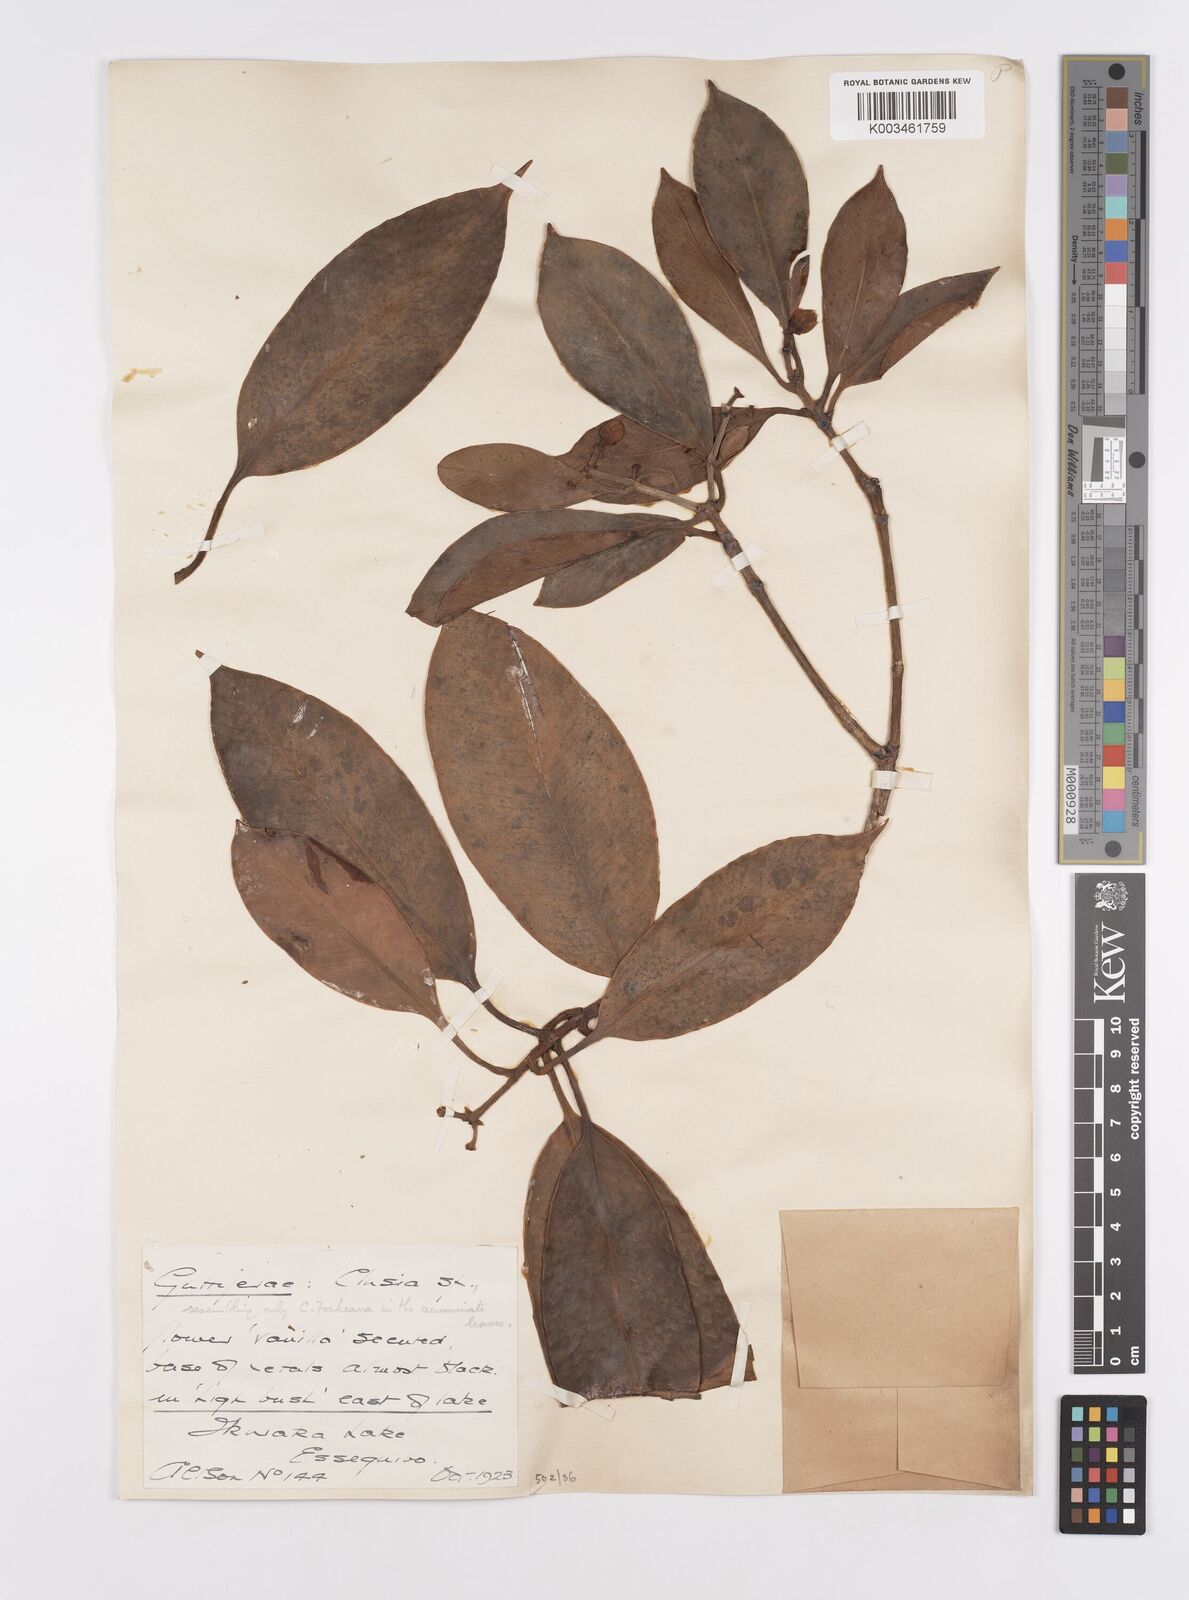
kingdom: Plantae
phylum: Tracheophyta
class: Magnoliopsida
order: Malpighiales
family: Clusiaceae
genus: Clusia
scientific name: Clusia fockeana
